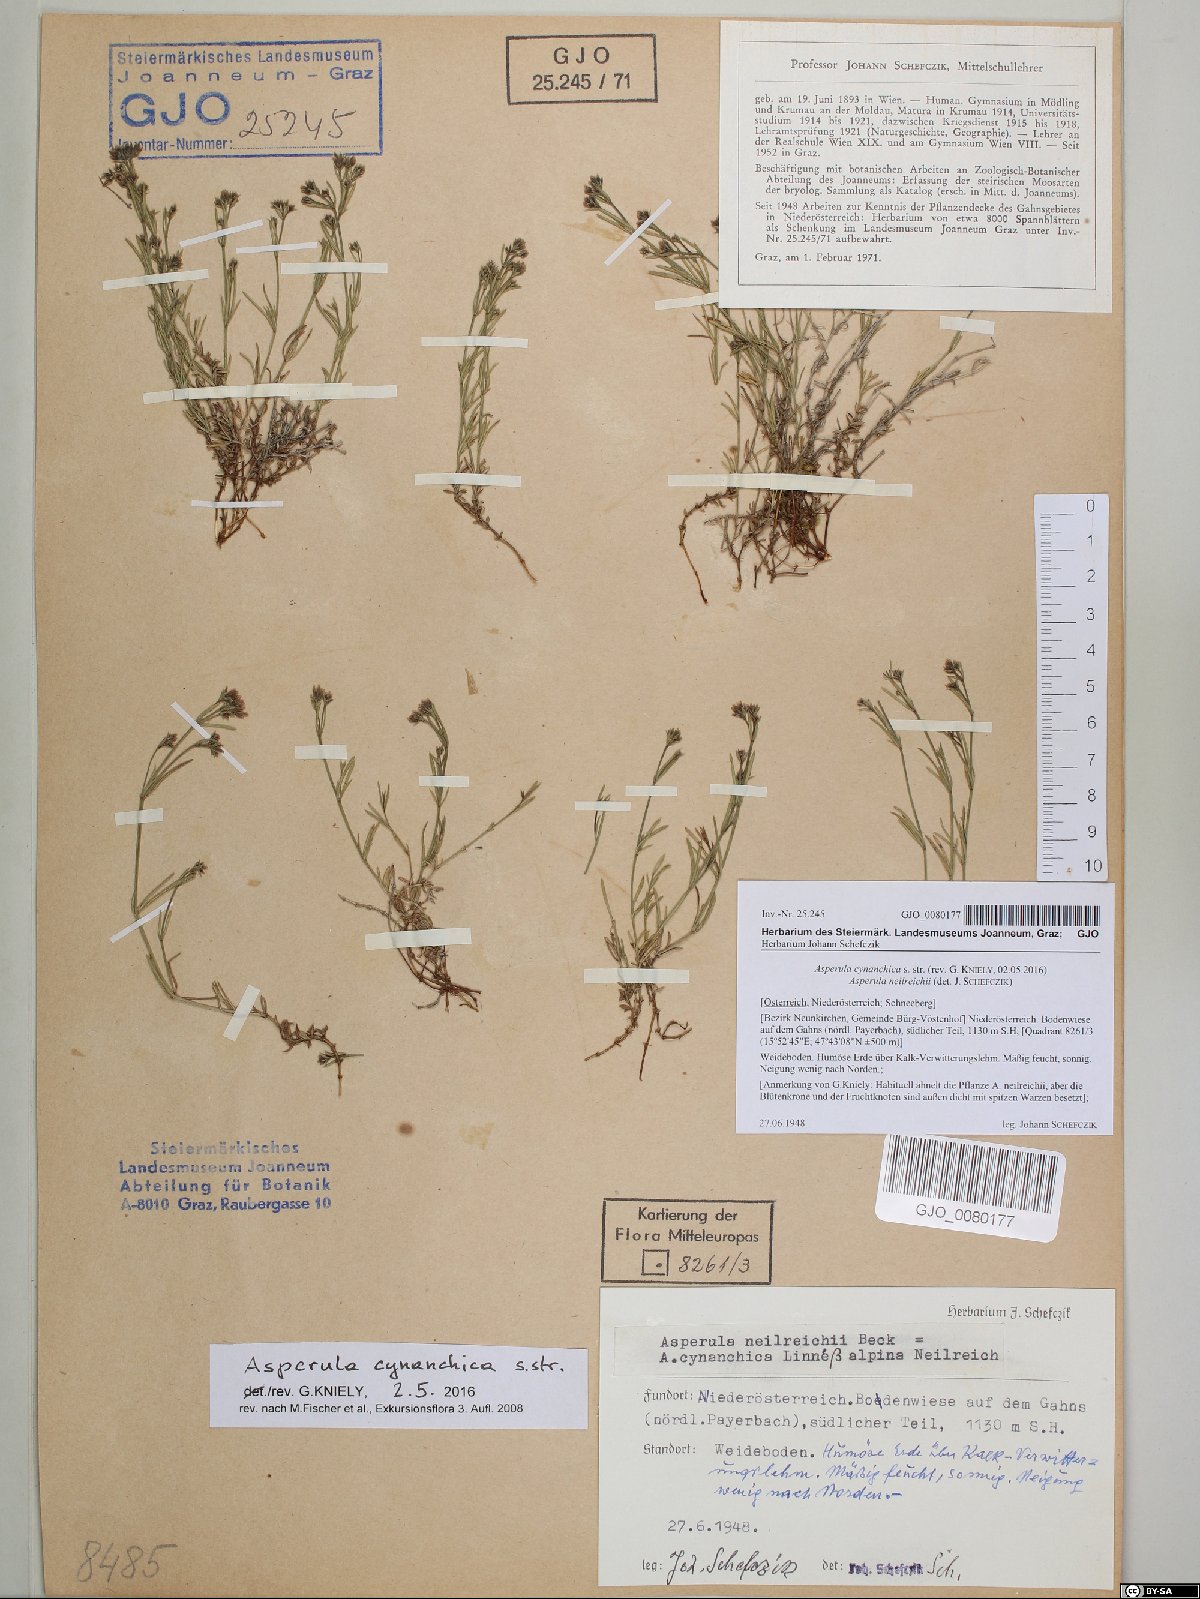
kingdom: Plantae
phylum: Tracheophyta
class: Magnoliopsida
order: Gentianales
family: Rubiaceae
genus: Cynanchica
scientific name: Cynanchica pyrenaica
